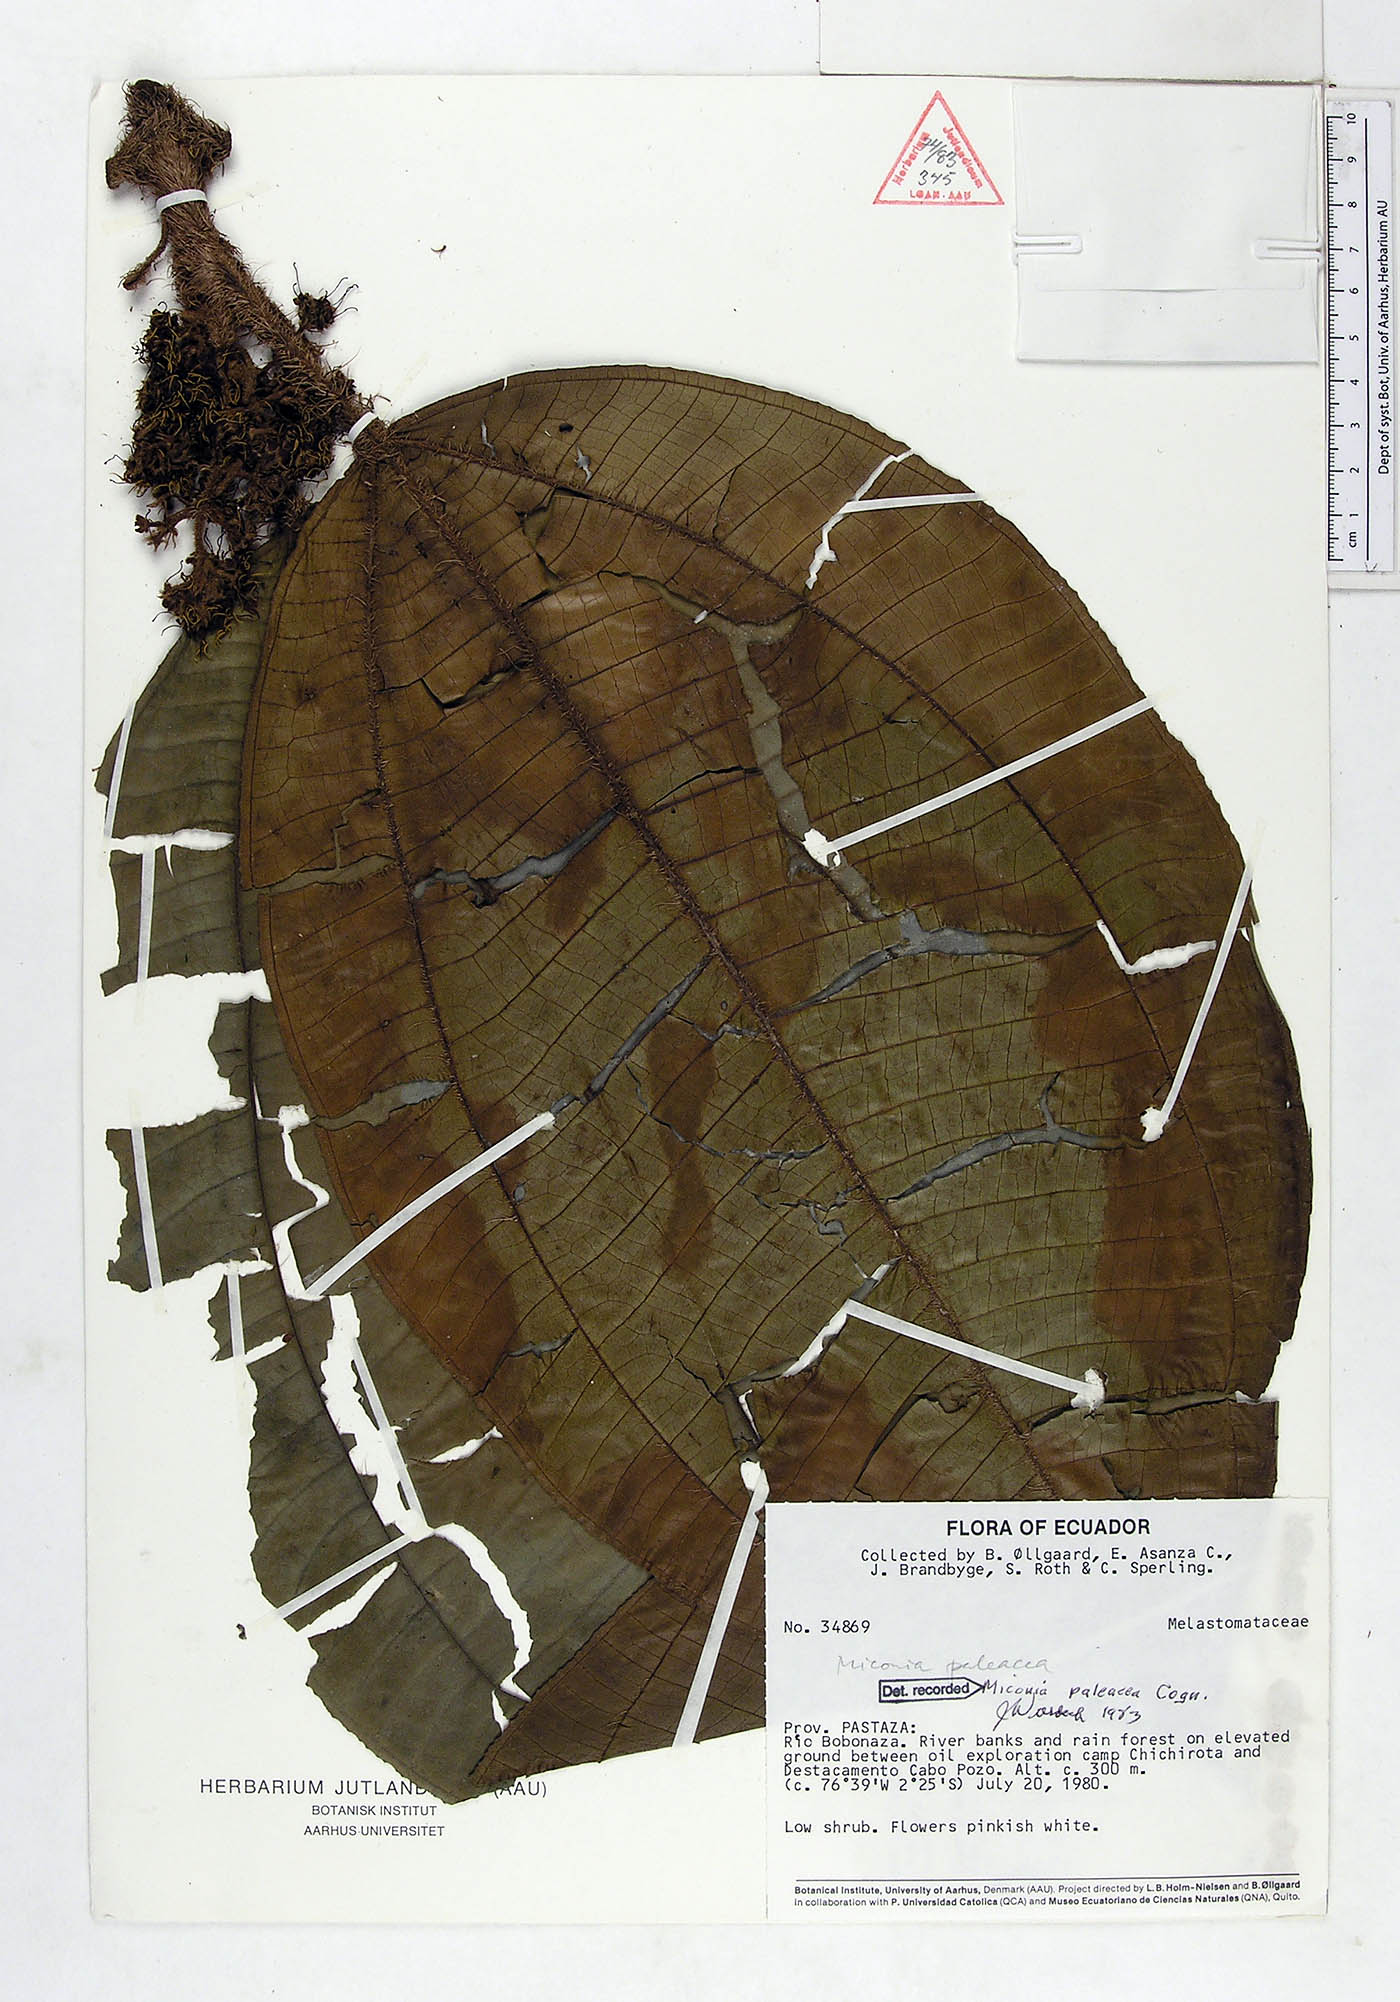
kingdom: Plantae
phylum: Tracheophyta
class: Magnoliopsida
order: Myrtales
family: Melastomataceae
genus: Miconia
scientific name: Miconia paleacea
